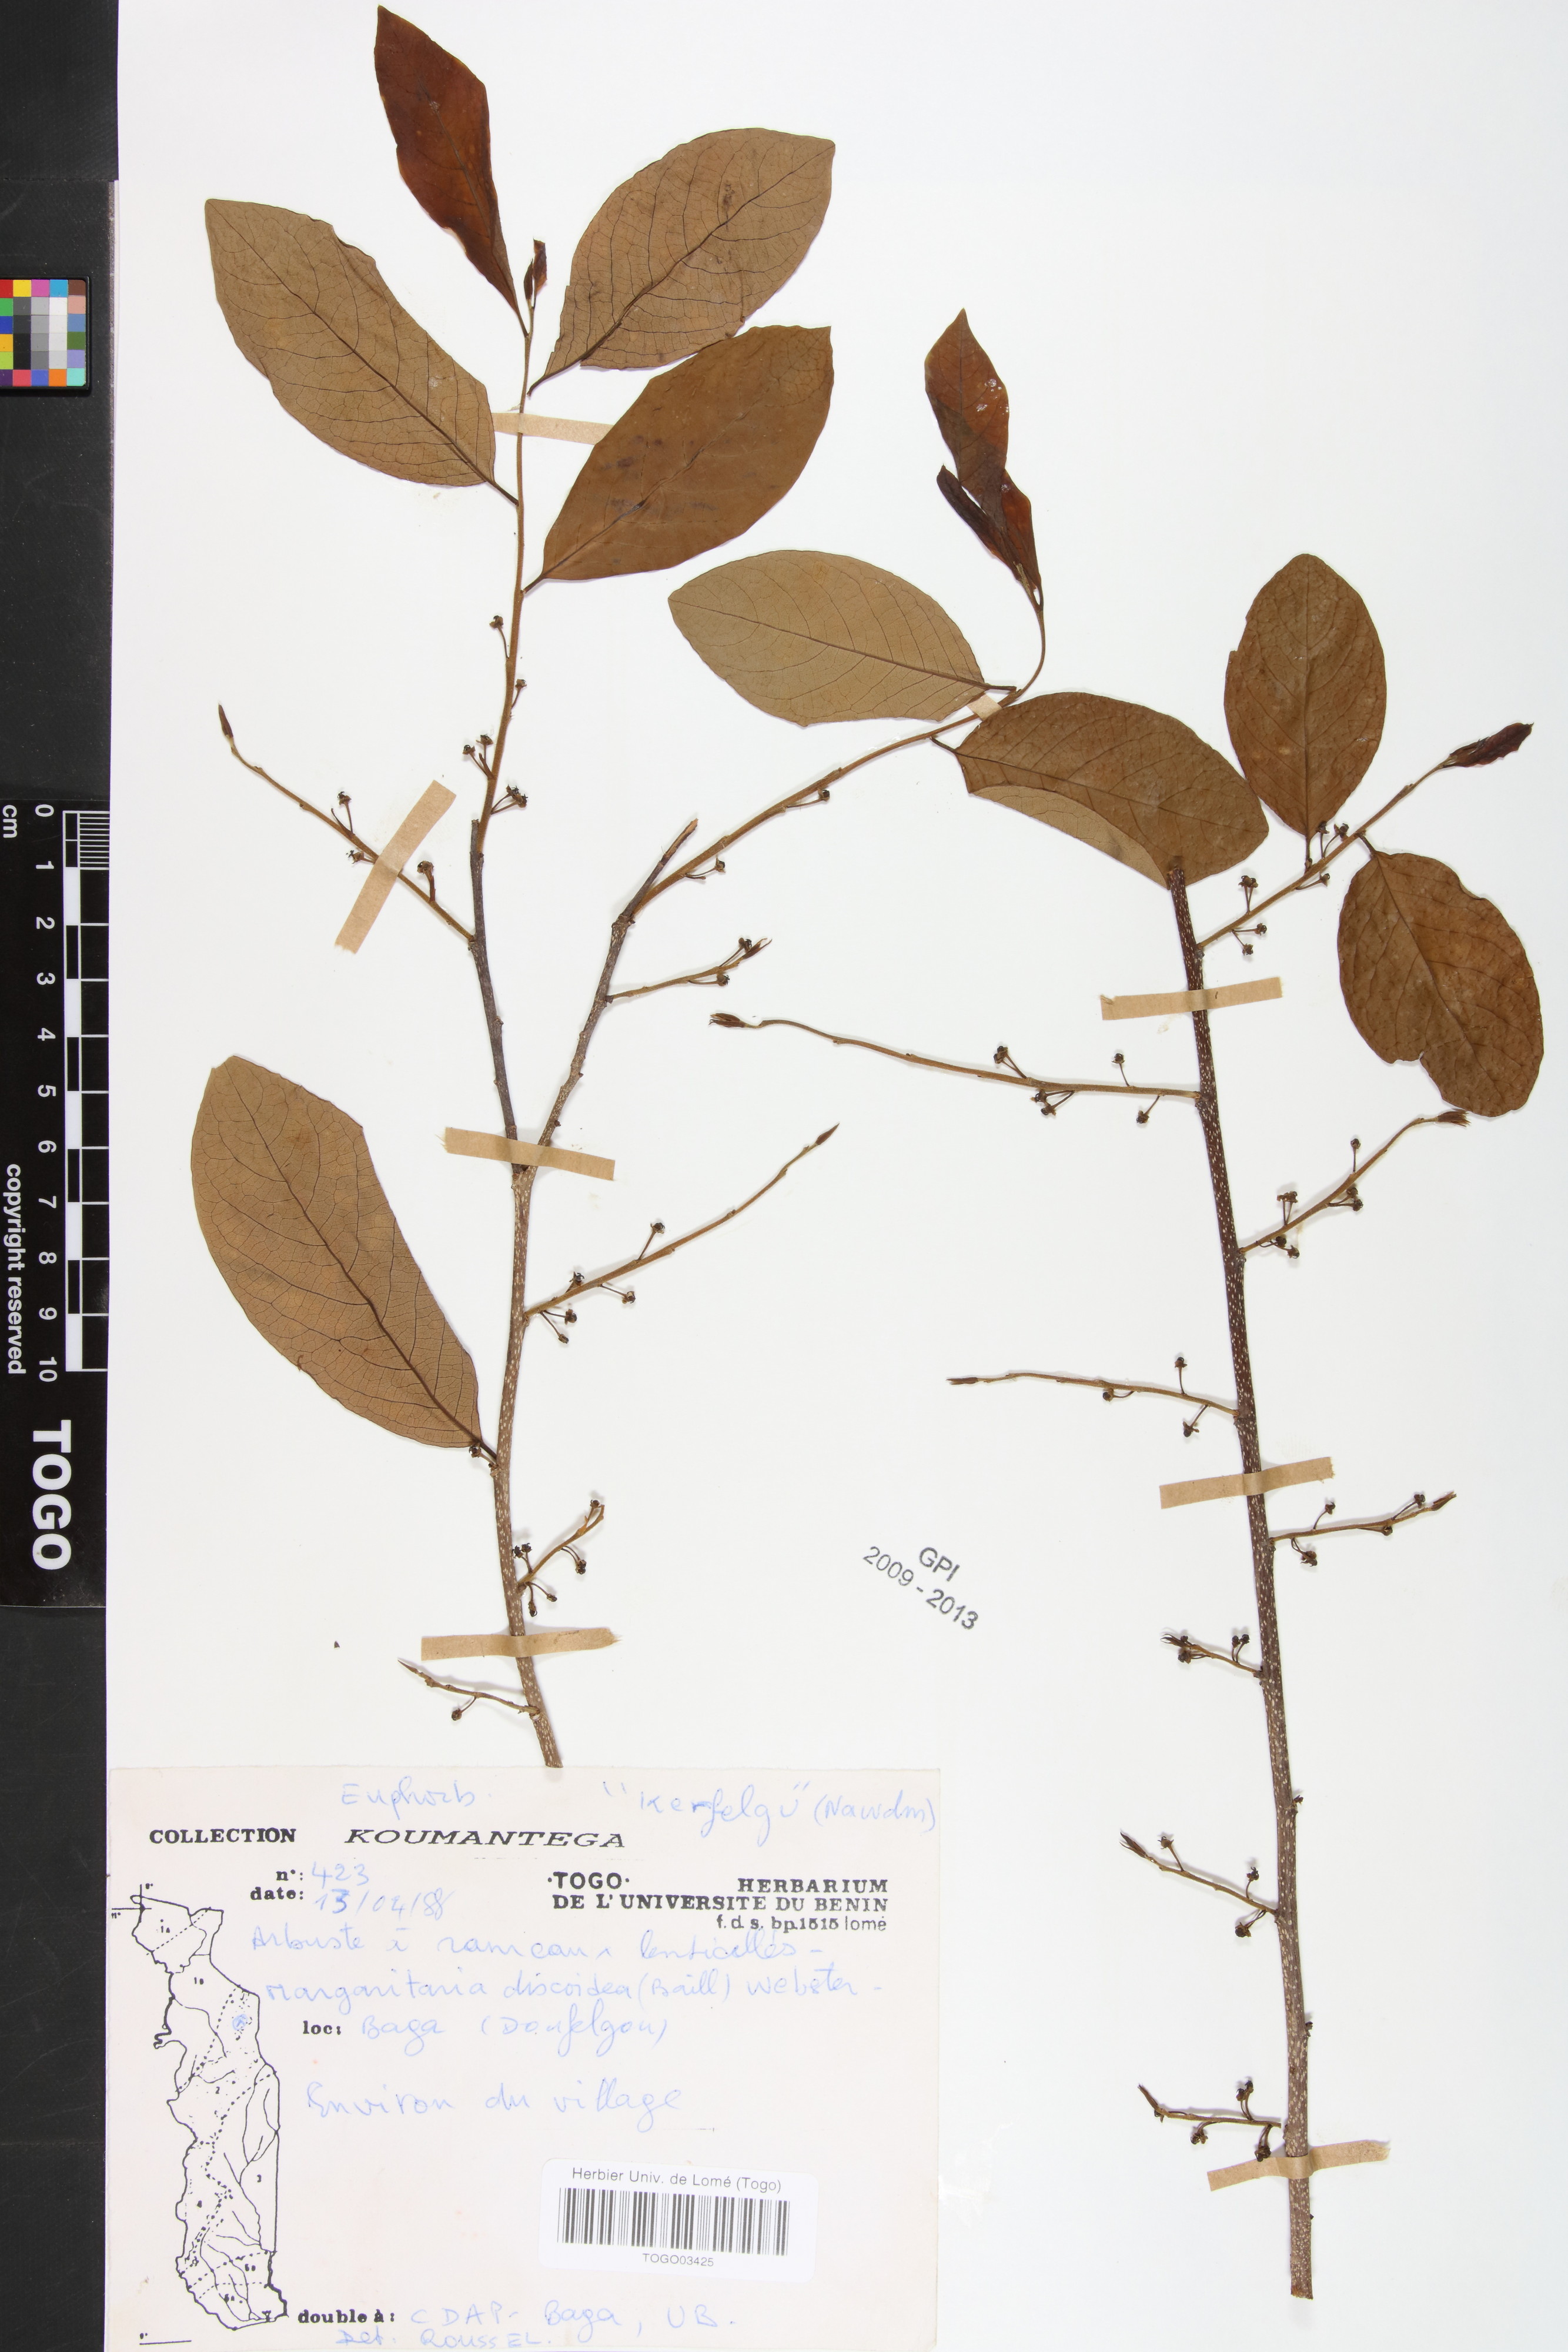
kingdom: Plantae
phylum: Tracheophyta
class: Magnoliopsida
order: Malpighiales
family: Phyllanthaceae
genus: Margaritaria
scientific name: Margaritaria discoidea
